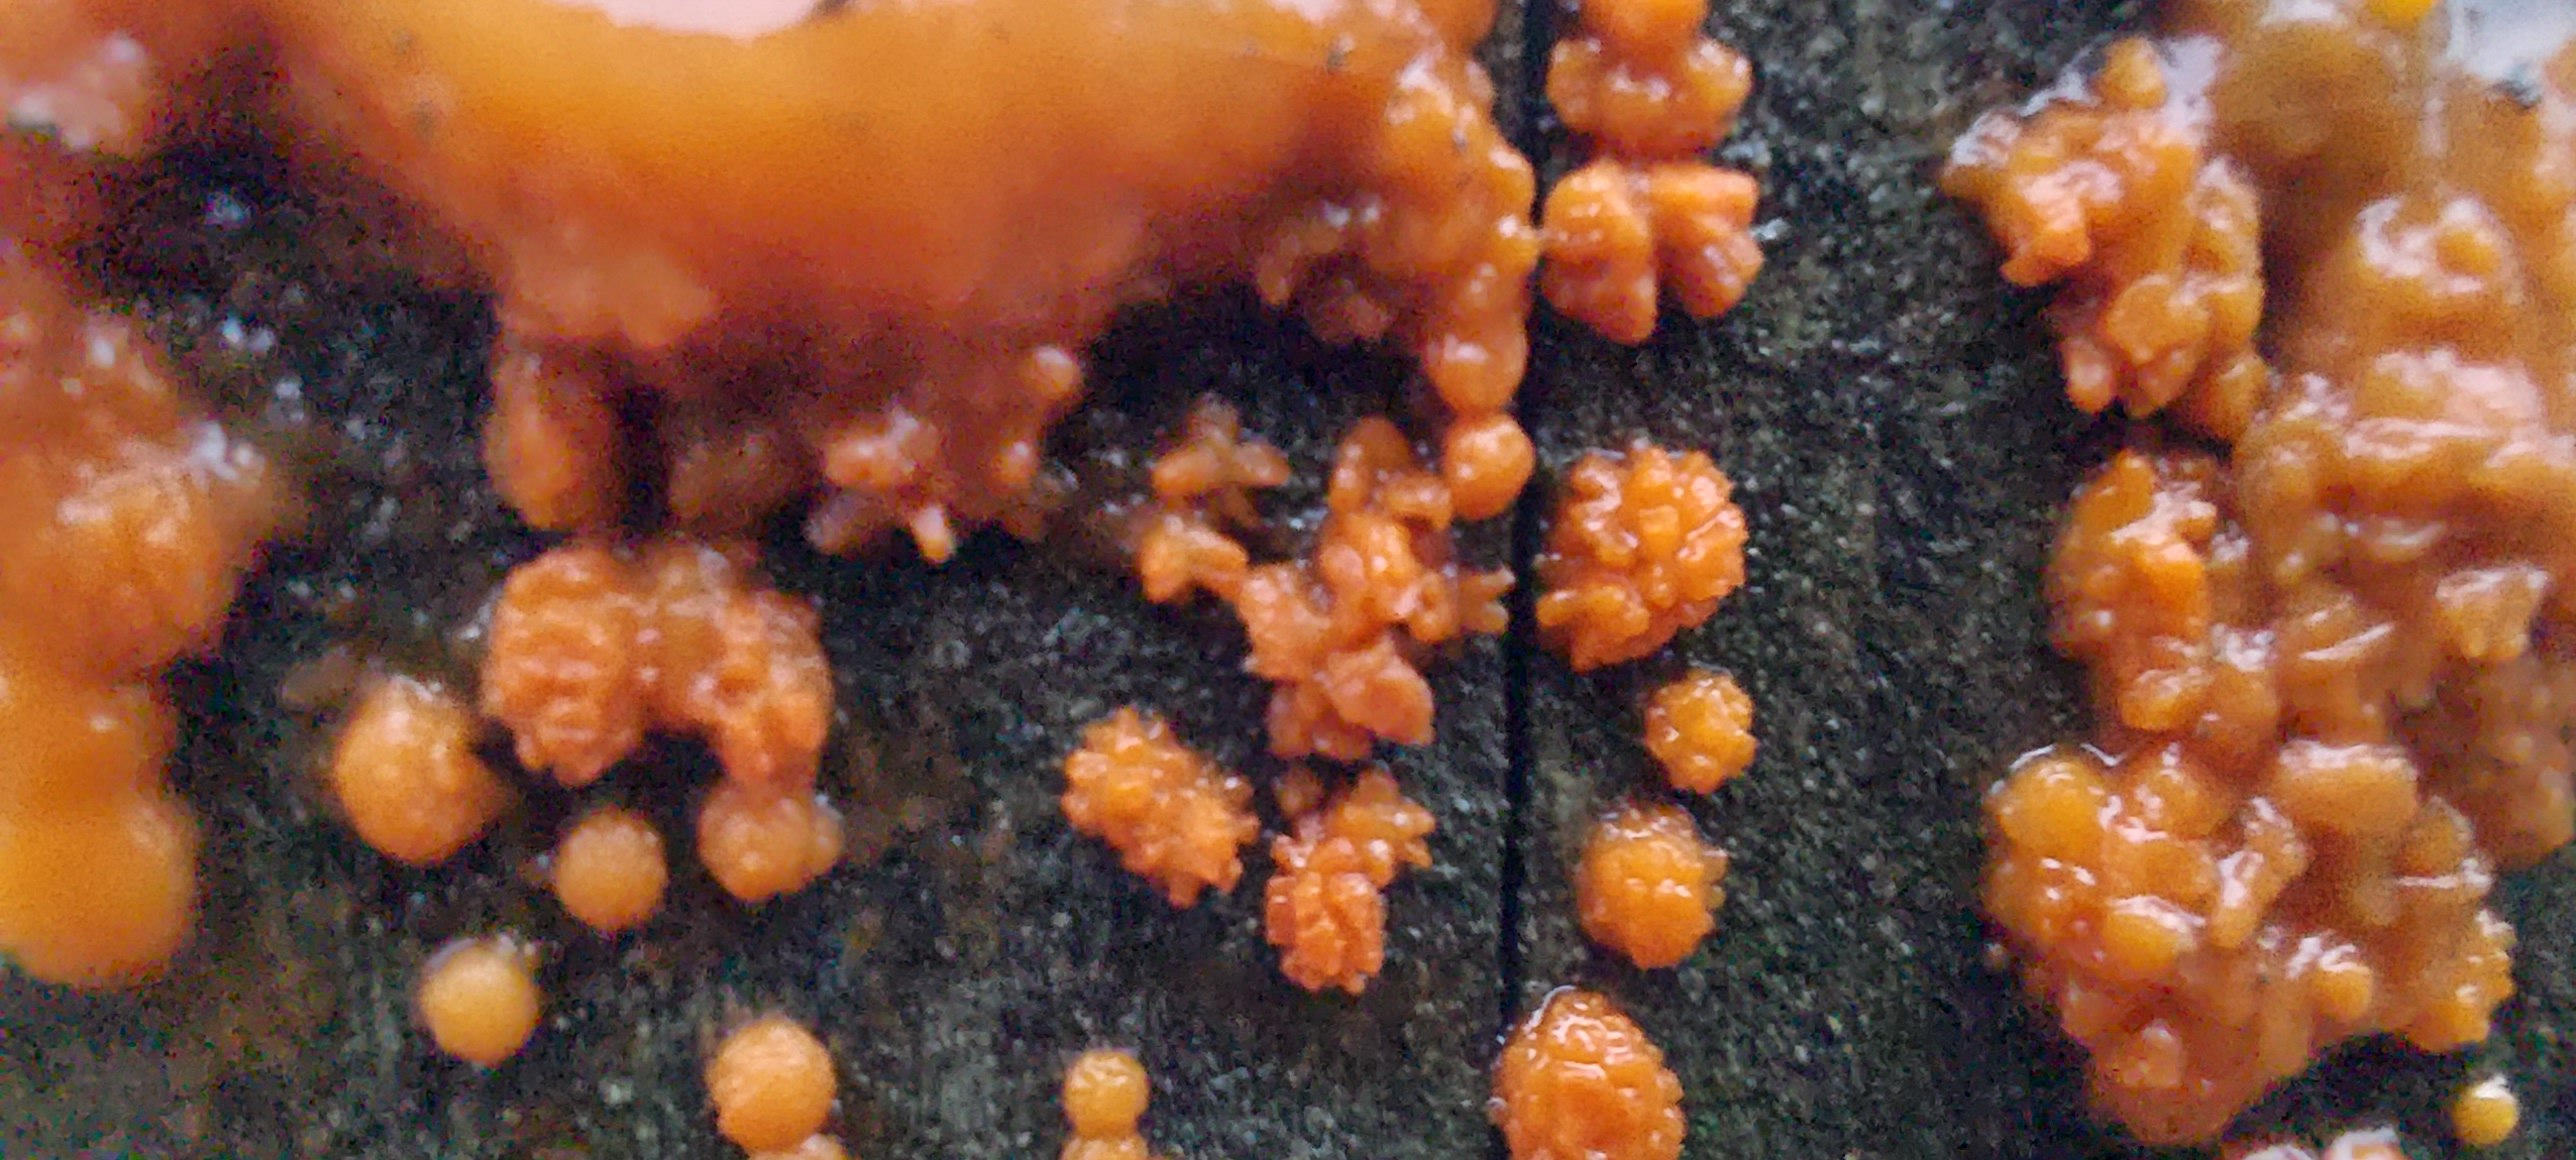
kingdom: Fungi
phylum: Basidiomycota
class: Dacrymycetes
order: Dacrymycetales
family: Dacrymycetaceae
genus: Dacrymyces
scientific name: Dacrymyces stillatus
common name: almindelig tåresvamp
